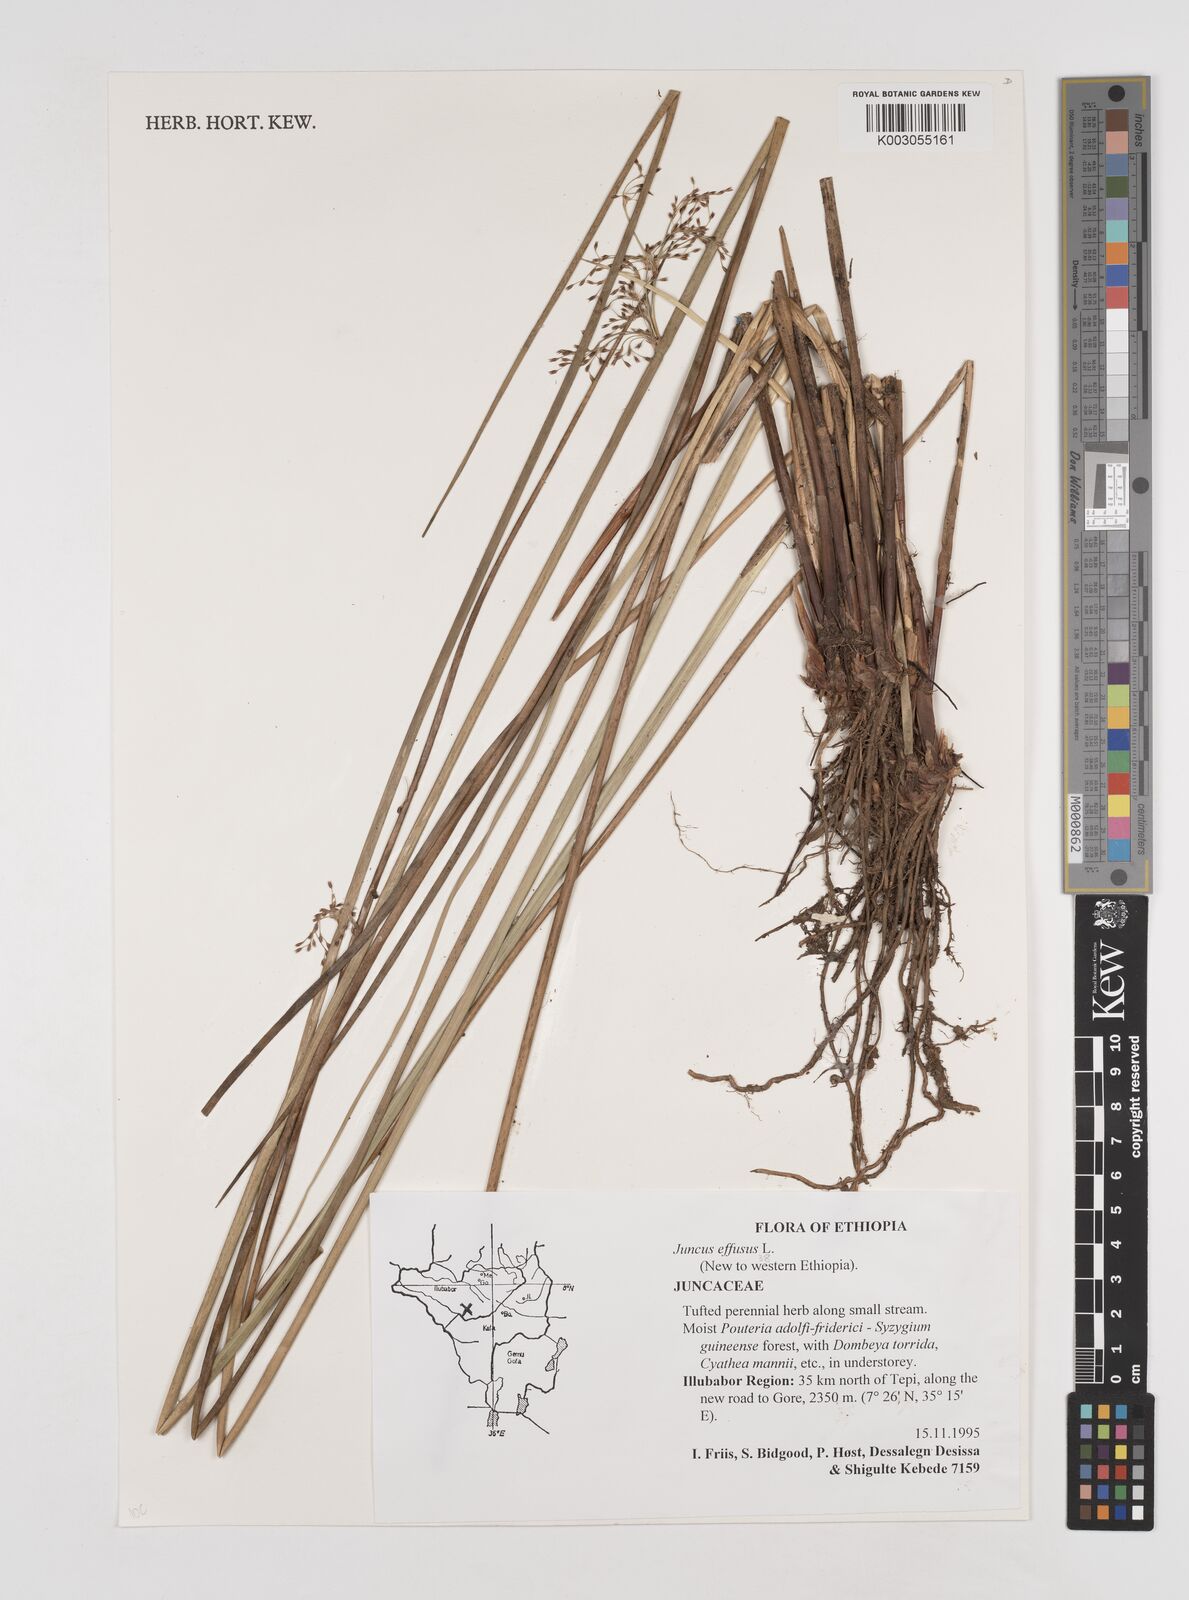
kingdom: Plantae
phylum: Tracheophyta
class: Liliopsida
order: Poales
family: Juncaceae
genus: Juncus
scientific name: Juncus effusus
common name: Soft rush
